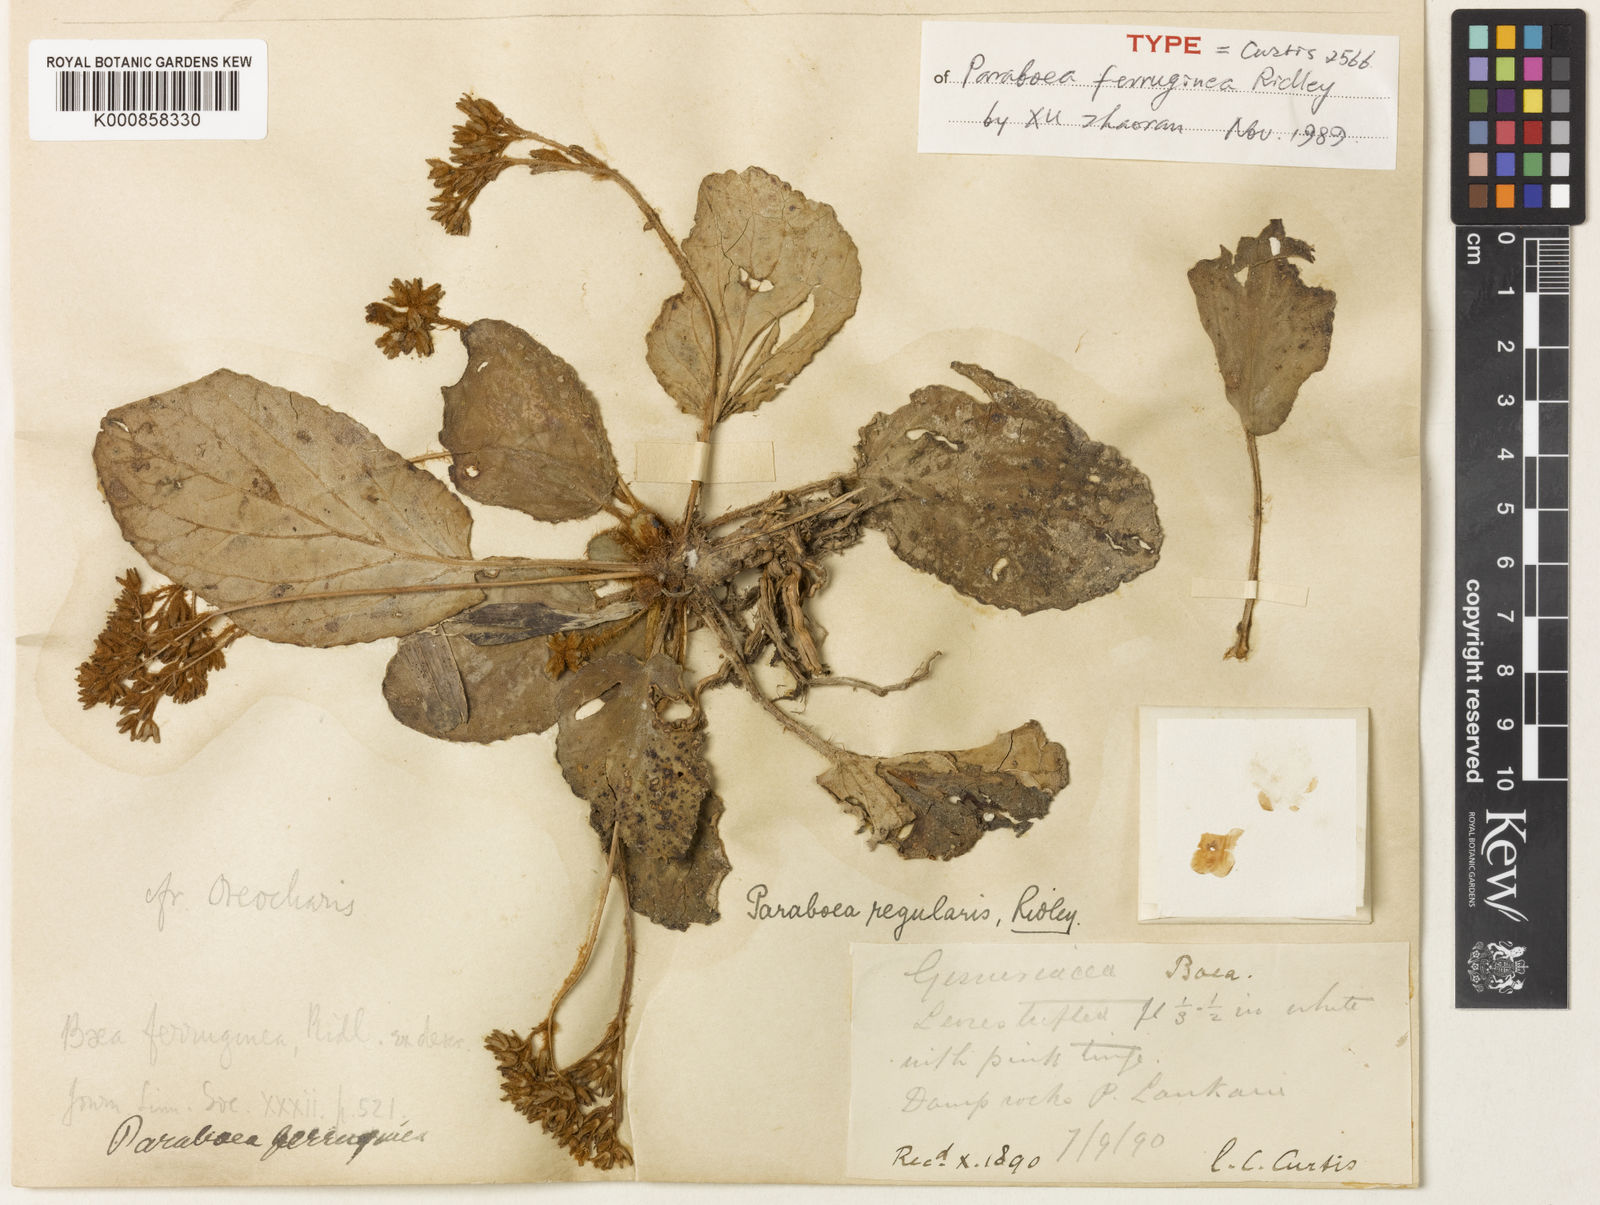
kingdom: Plantae
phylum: Tracheophyta
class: Magnoliopsida
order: Lamiales
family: Gesneriaceae
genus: Paraboea
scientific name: Paraboea ferruginea
